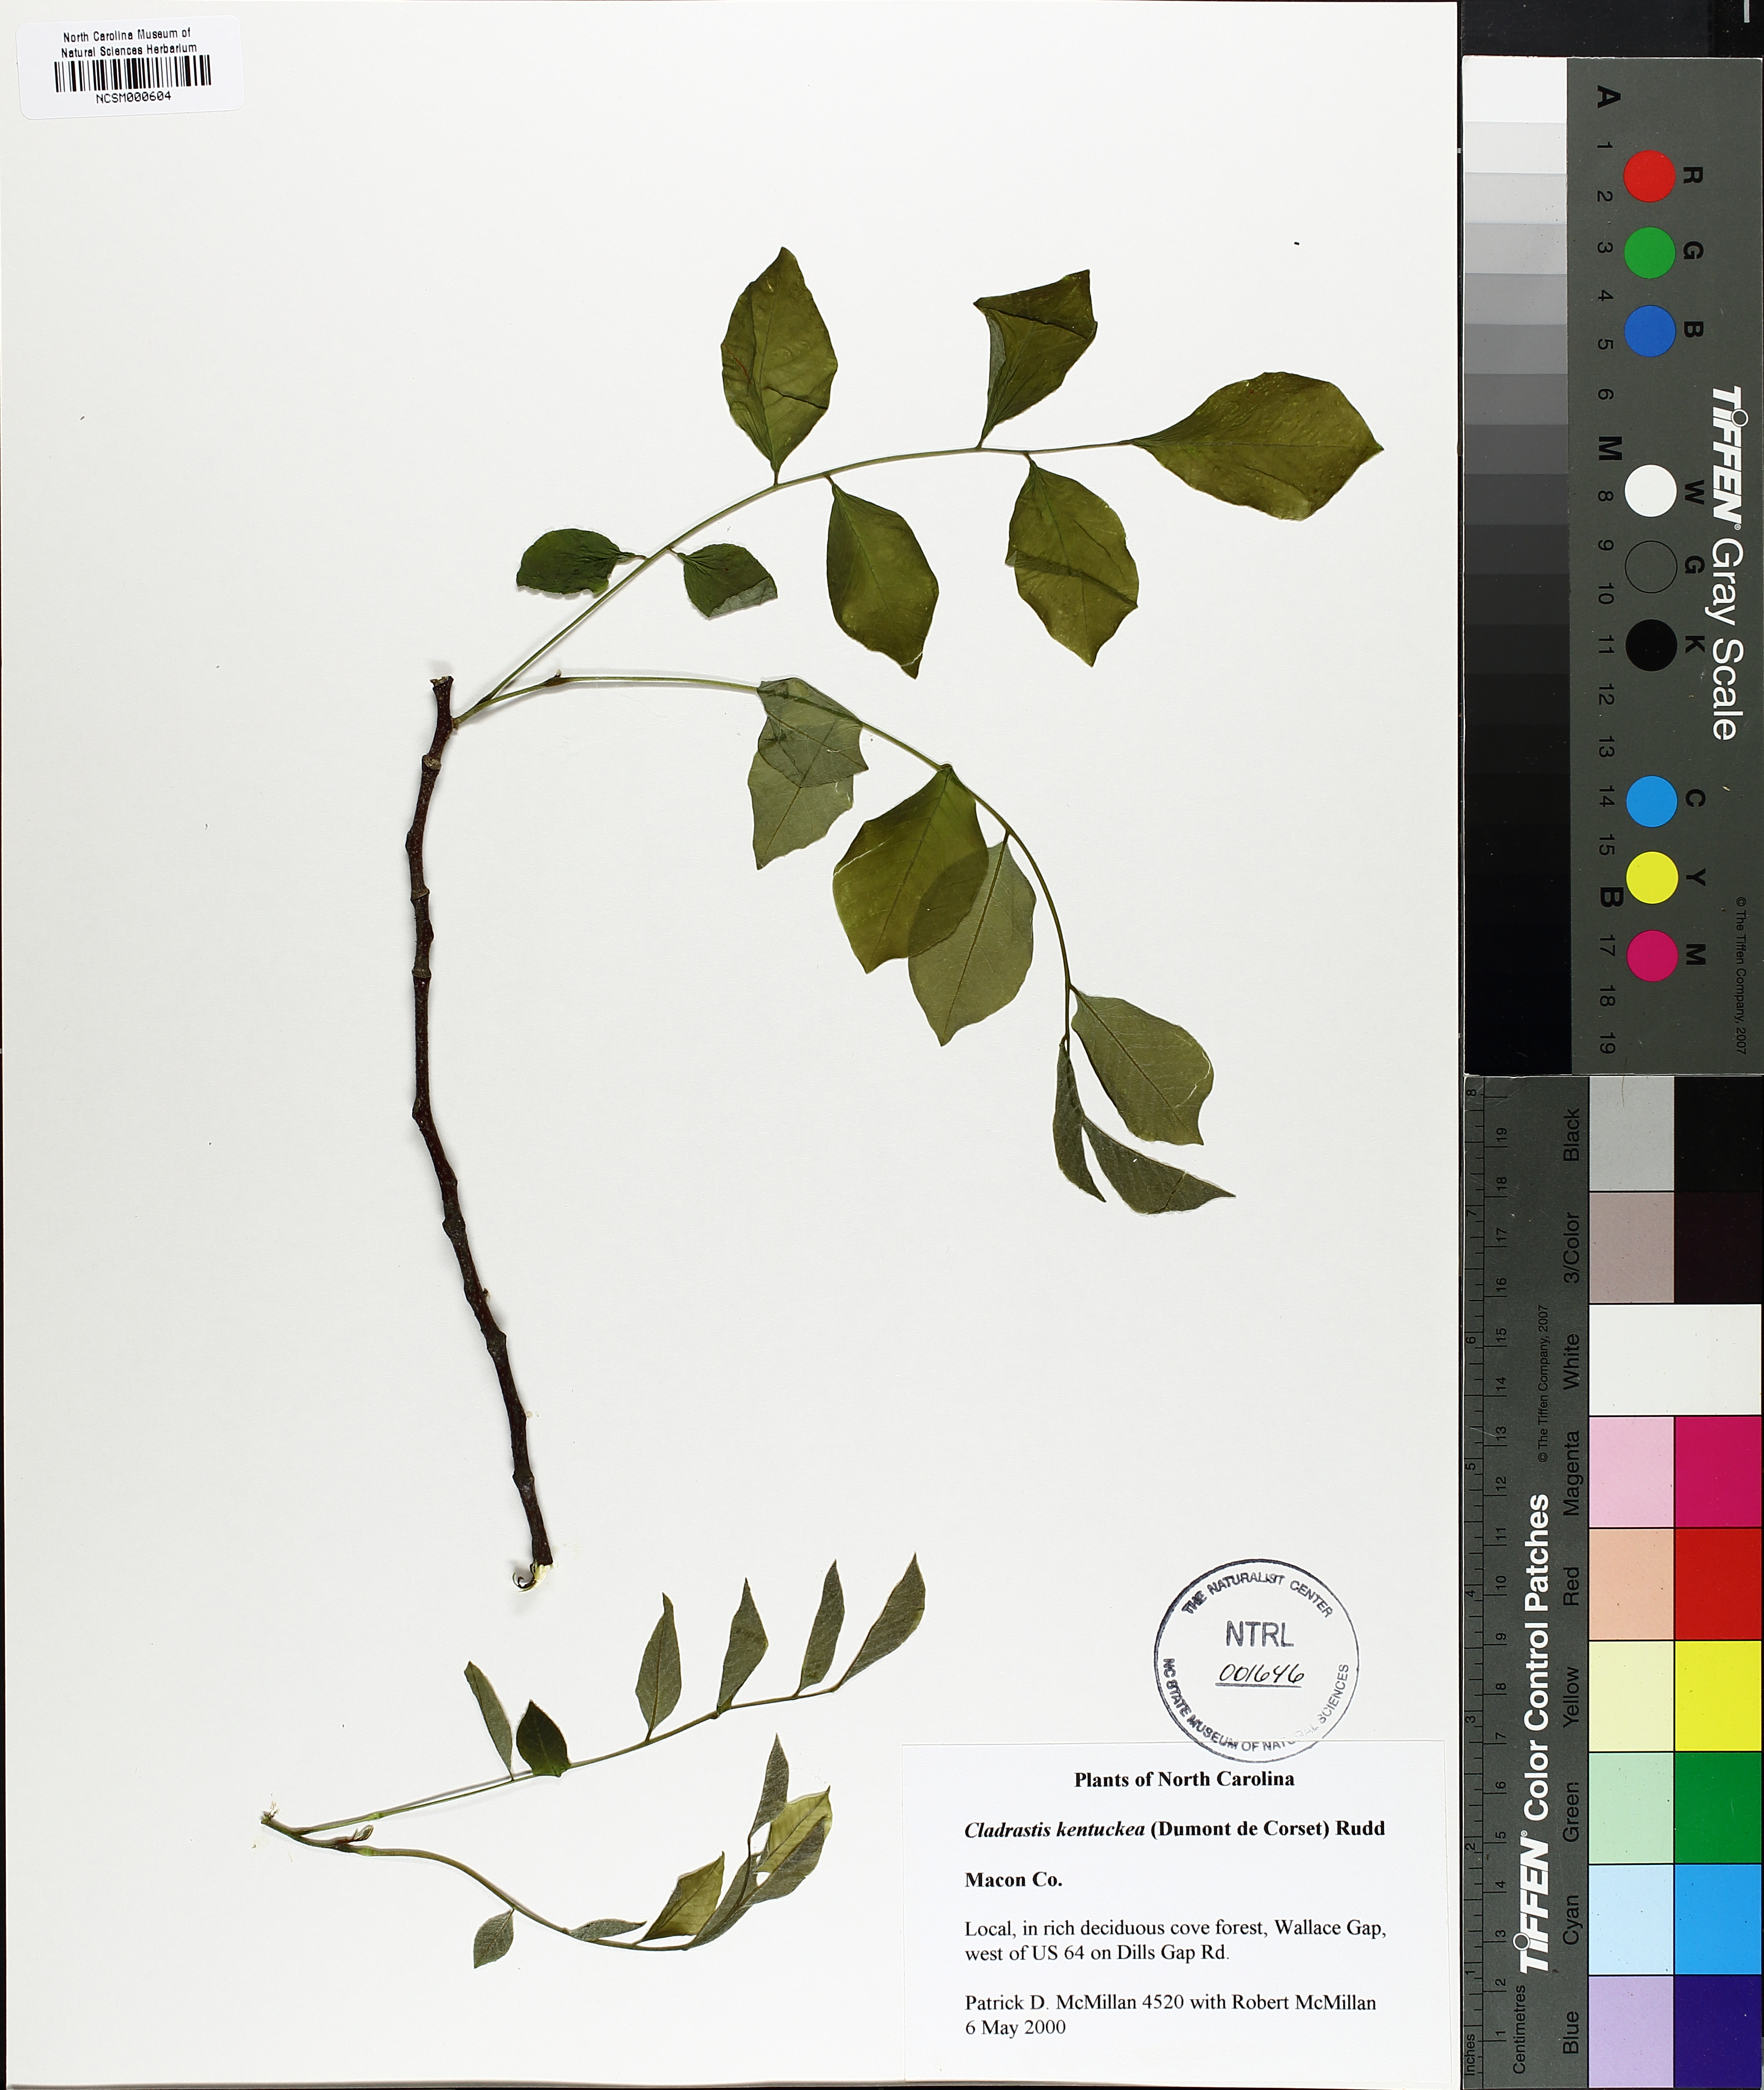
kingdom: Plantae
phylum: Tracheophyta
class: Magnoliopsida
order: Fabales
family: Fabaceae
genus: Cladrastis
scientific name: Cladrastis kentukea
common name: Kentucky yellow-wood
